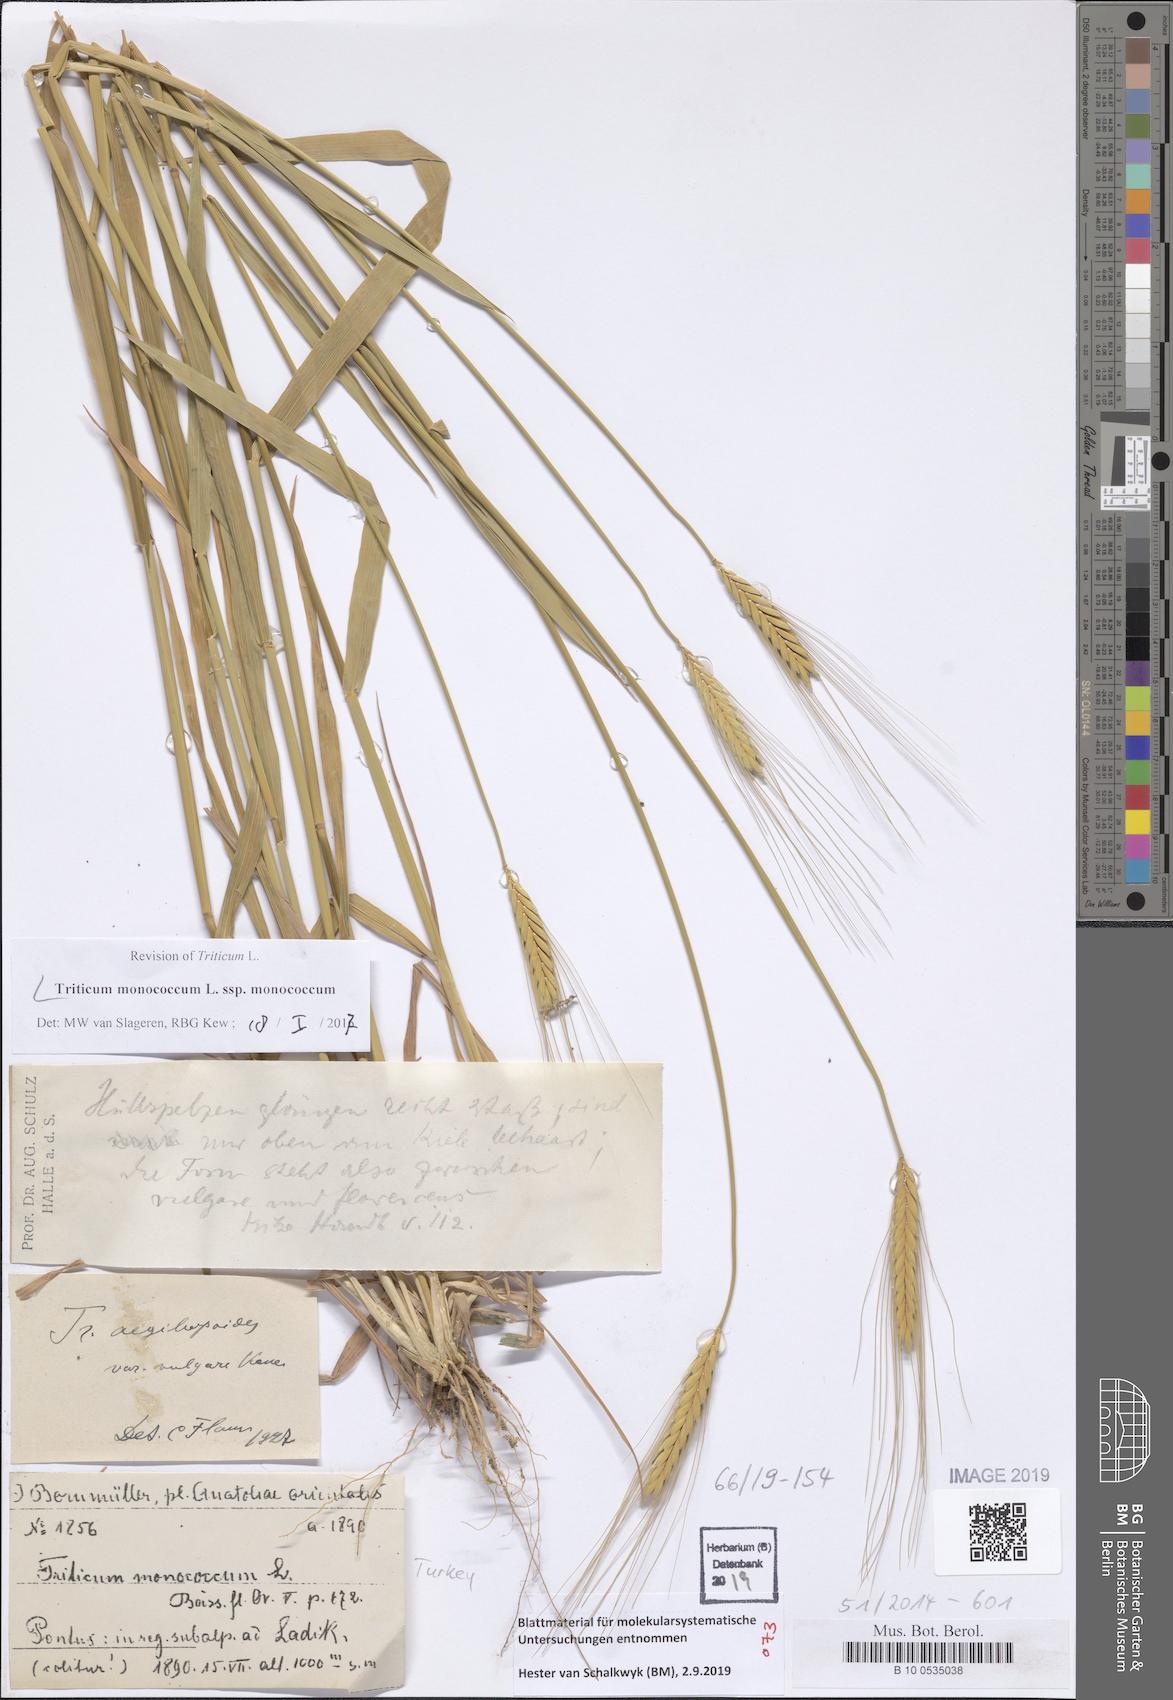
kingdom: Plantae
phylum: Tracheophyta
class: Liliopsida
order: Poales
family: Poaceae
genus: Triticum
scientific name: Triticum monococcum
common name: Einkorn
